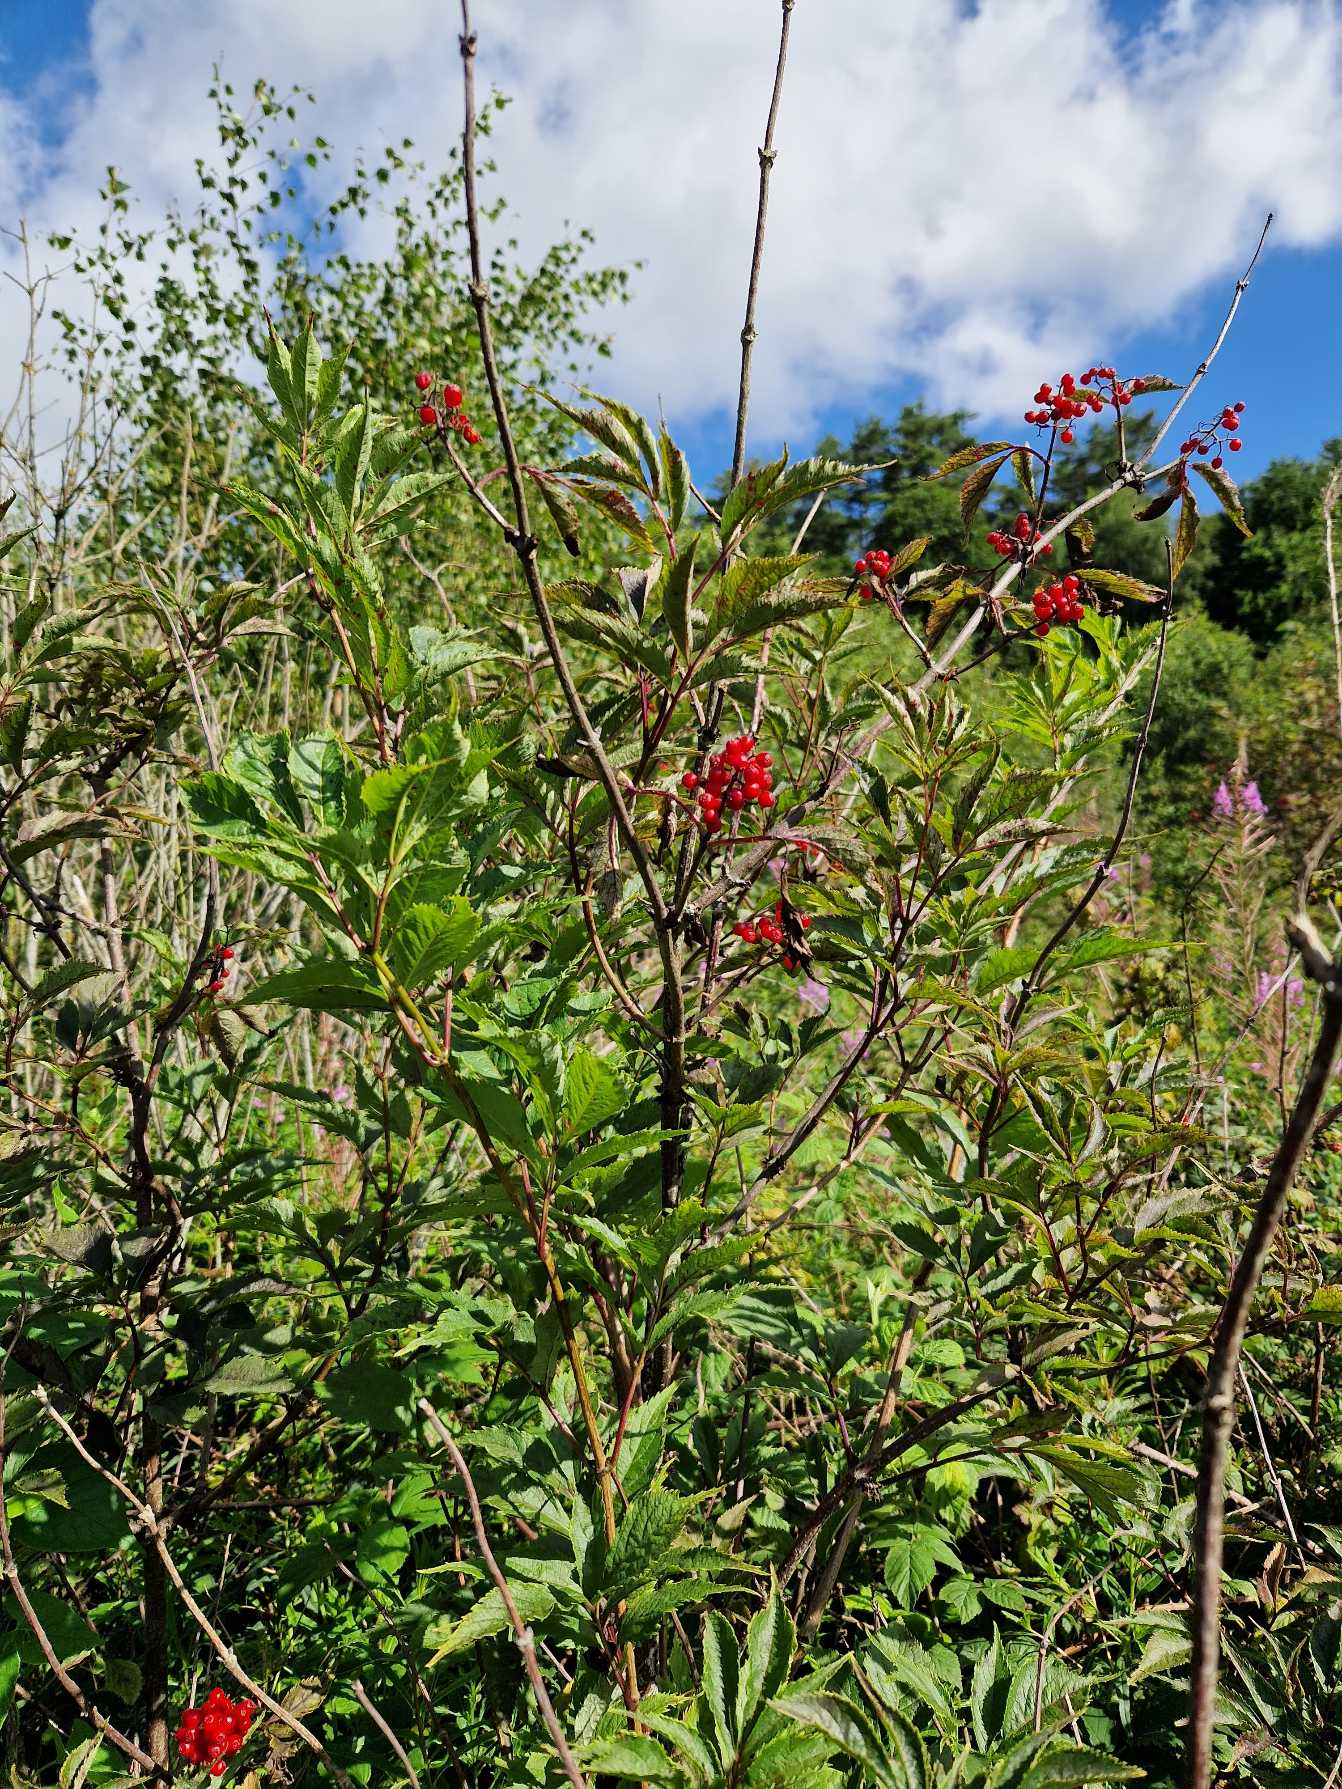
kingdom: Plantae
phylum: Tracheophyta
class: Magnoliopsida
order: Dipsacales
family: Viburnaceae
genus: Sambucus
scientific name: Sambucus racemosa
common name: Drue-hyld
